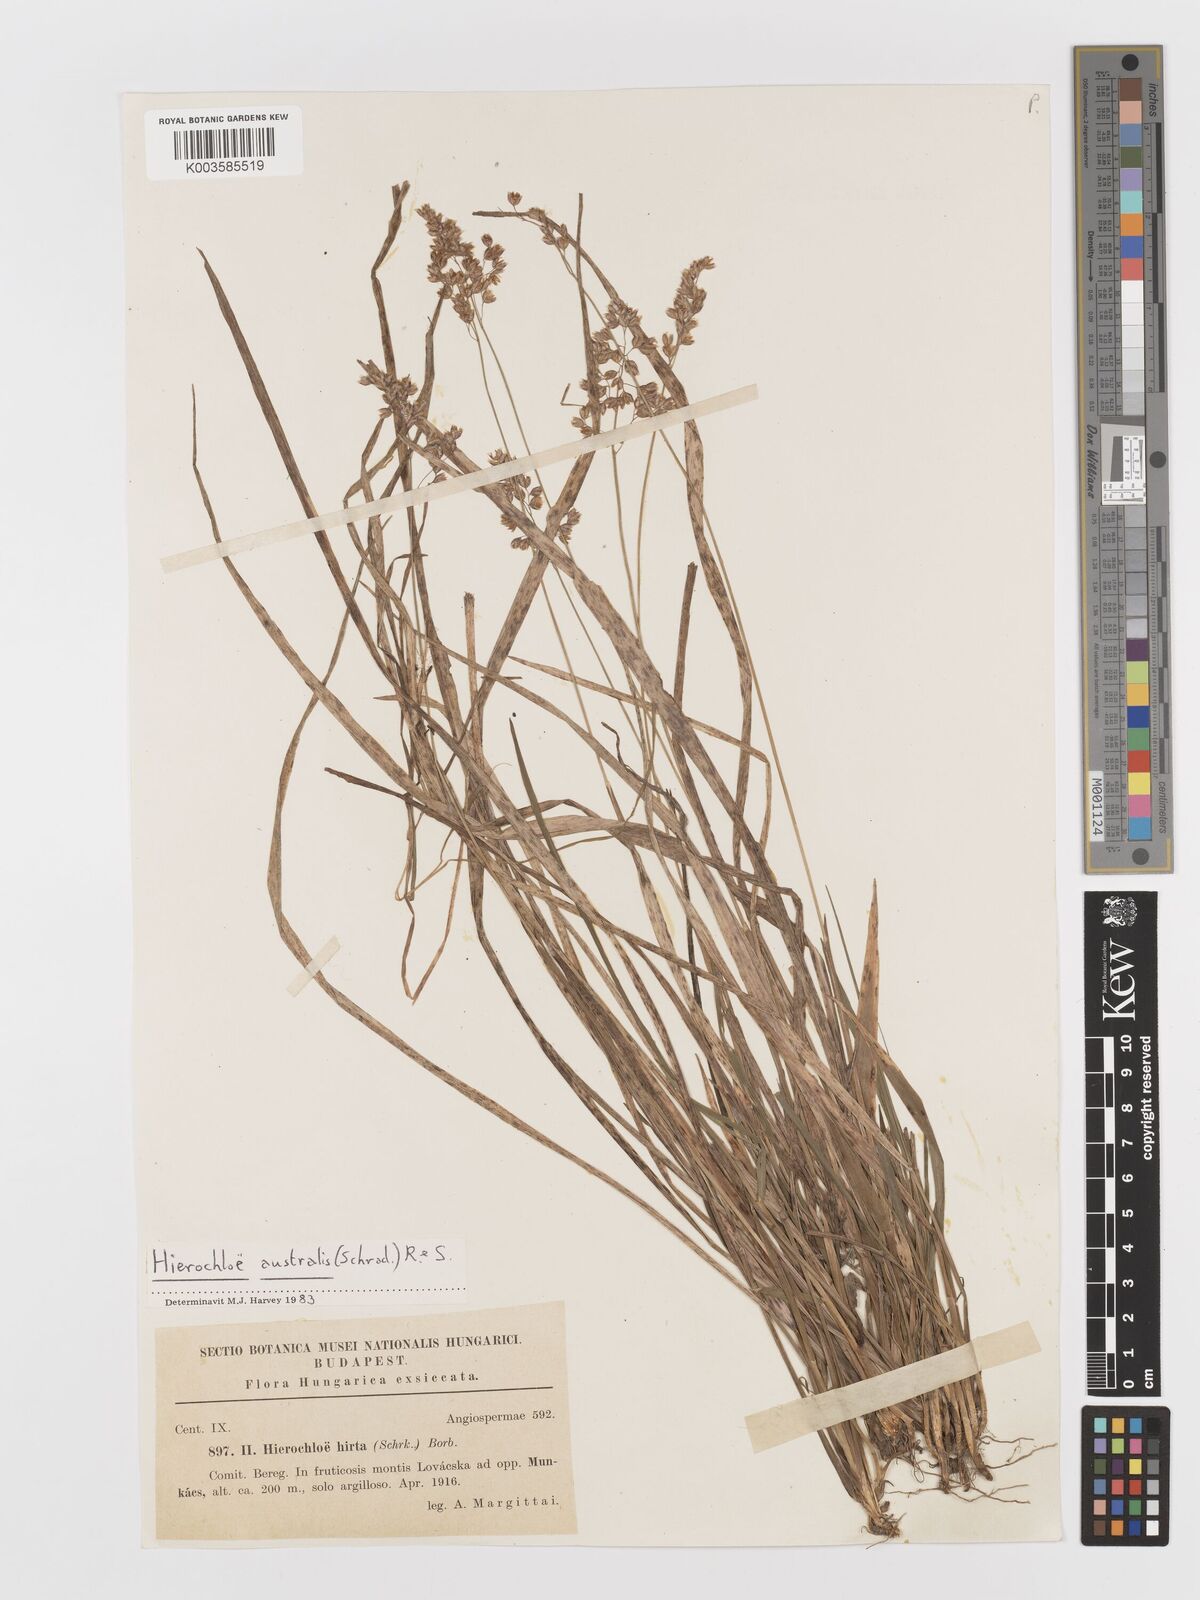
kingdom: Plantae
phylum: Tracheophyta
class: Liliopsida
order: Poales
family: Poaceae
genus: Anthoxanthum
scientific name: Anthoxanthum australe
